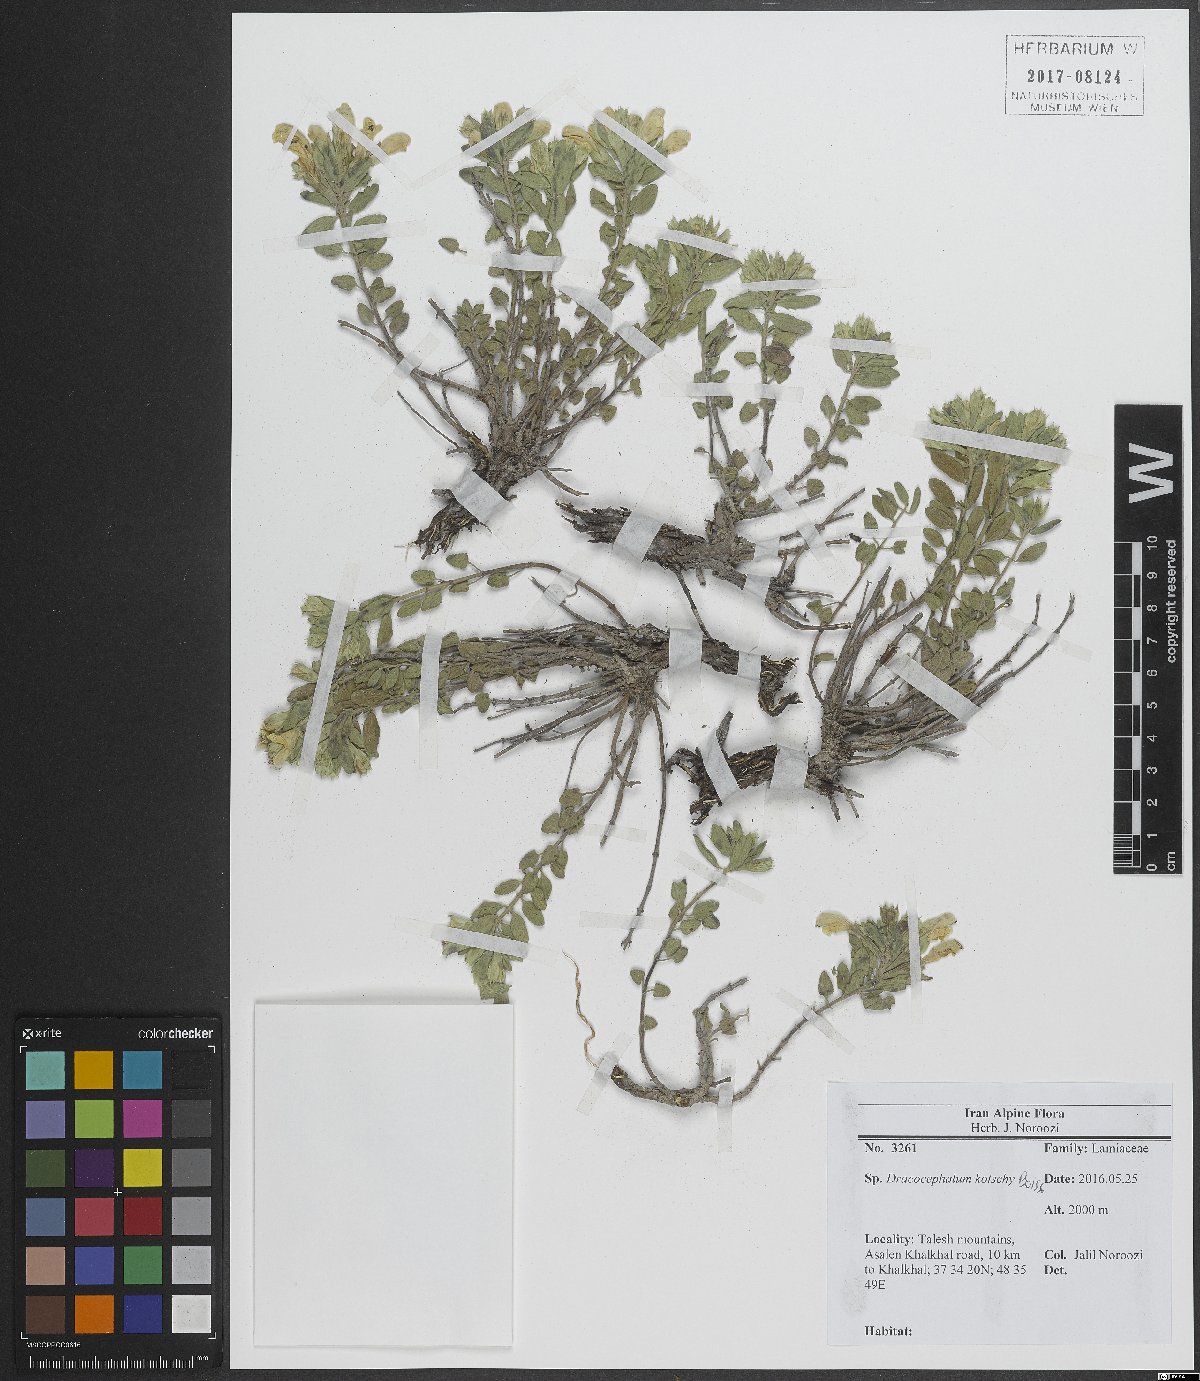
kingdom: Plantae
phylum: Tracheophyta
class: Magnoliopsida
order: Lamiales
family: Lamiaceae
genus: Dracocephalum
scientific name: Dracocephalum kotschyi
